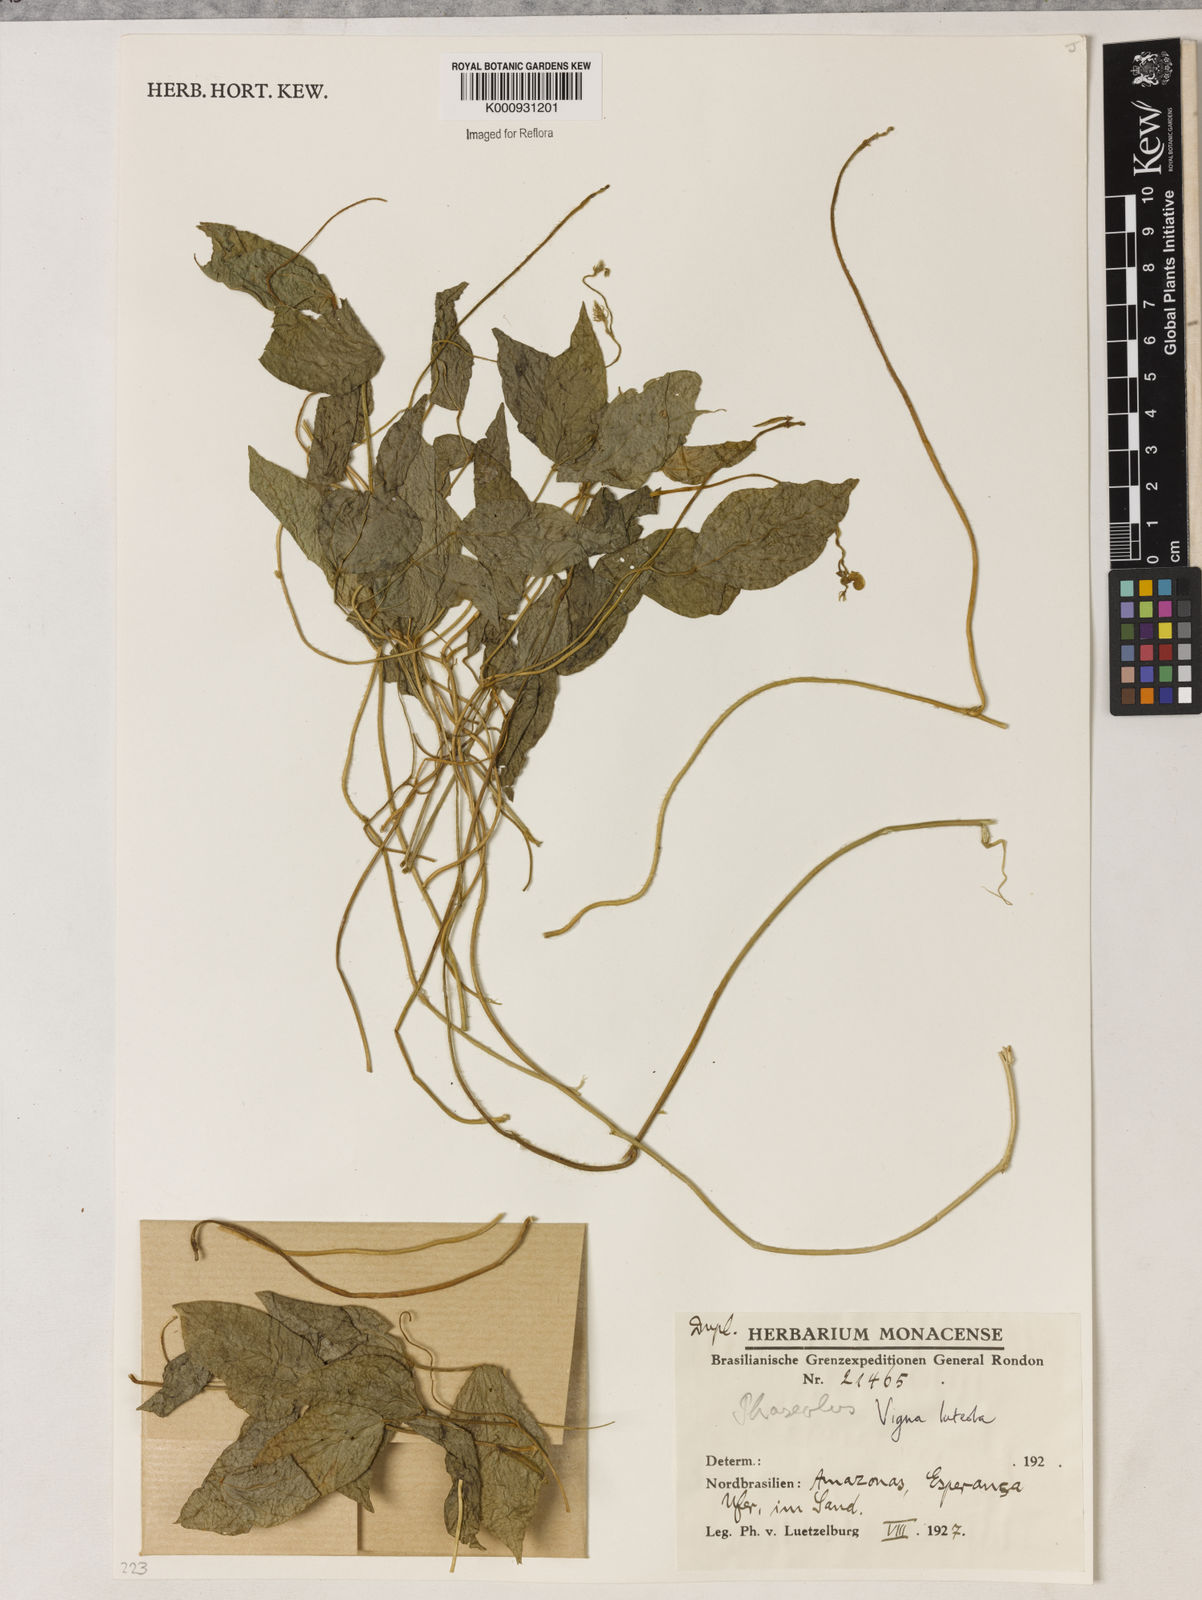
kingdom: Plantae
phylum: Tracheophyta
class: Magnoliopsida
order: Fabales
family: Fabaceae
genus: Vigna
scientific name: Vigna luteola
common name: Hairypod cowpea
